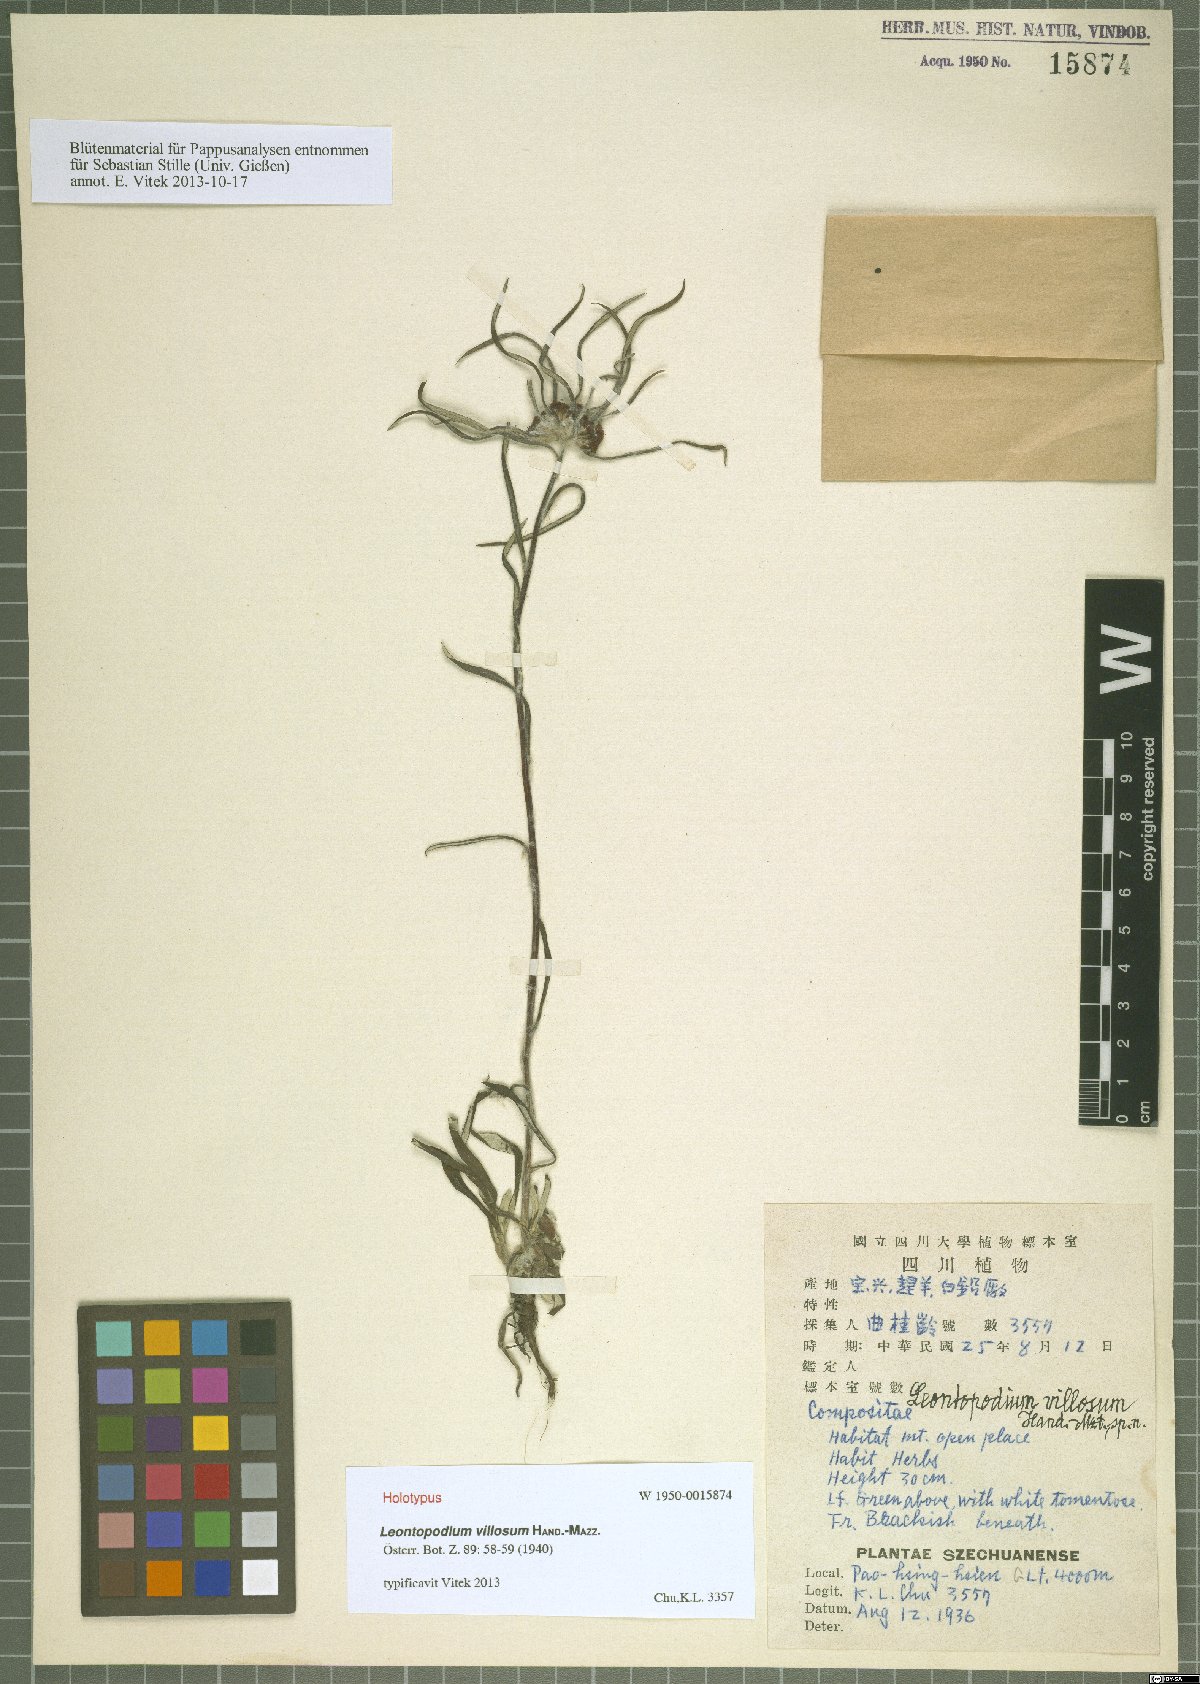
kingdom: Plantae
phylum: Tracheophyta
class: Magnoliopsida
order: Asterales
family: Asteraceae
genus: Leontopodium
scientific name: Leontopodium villosum
